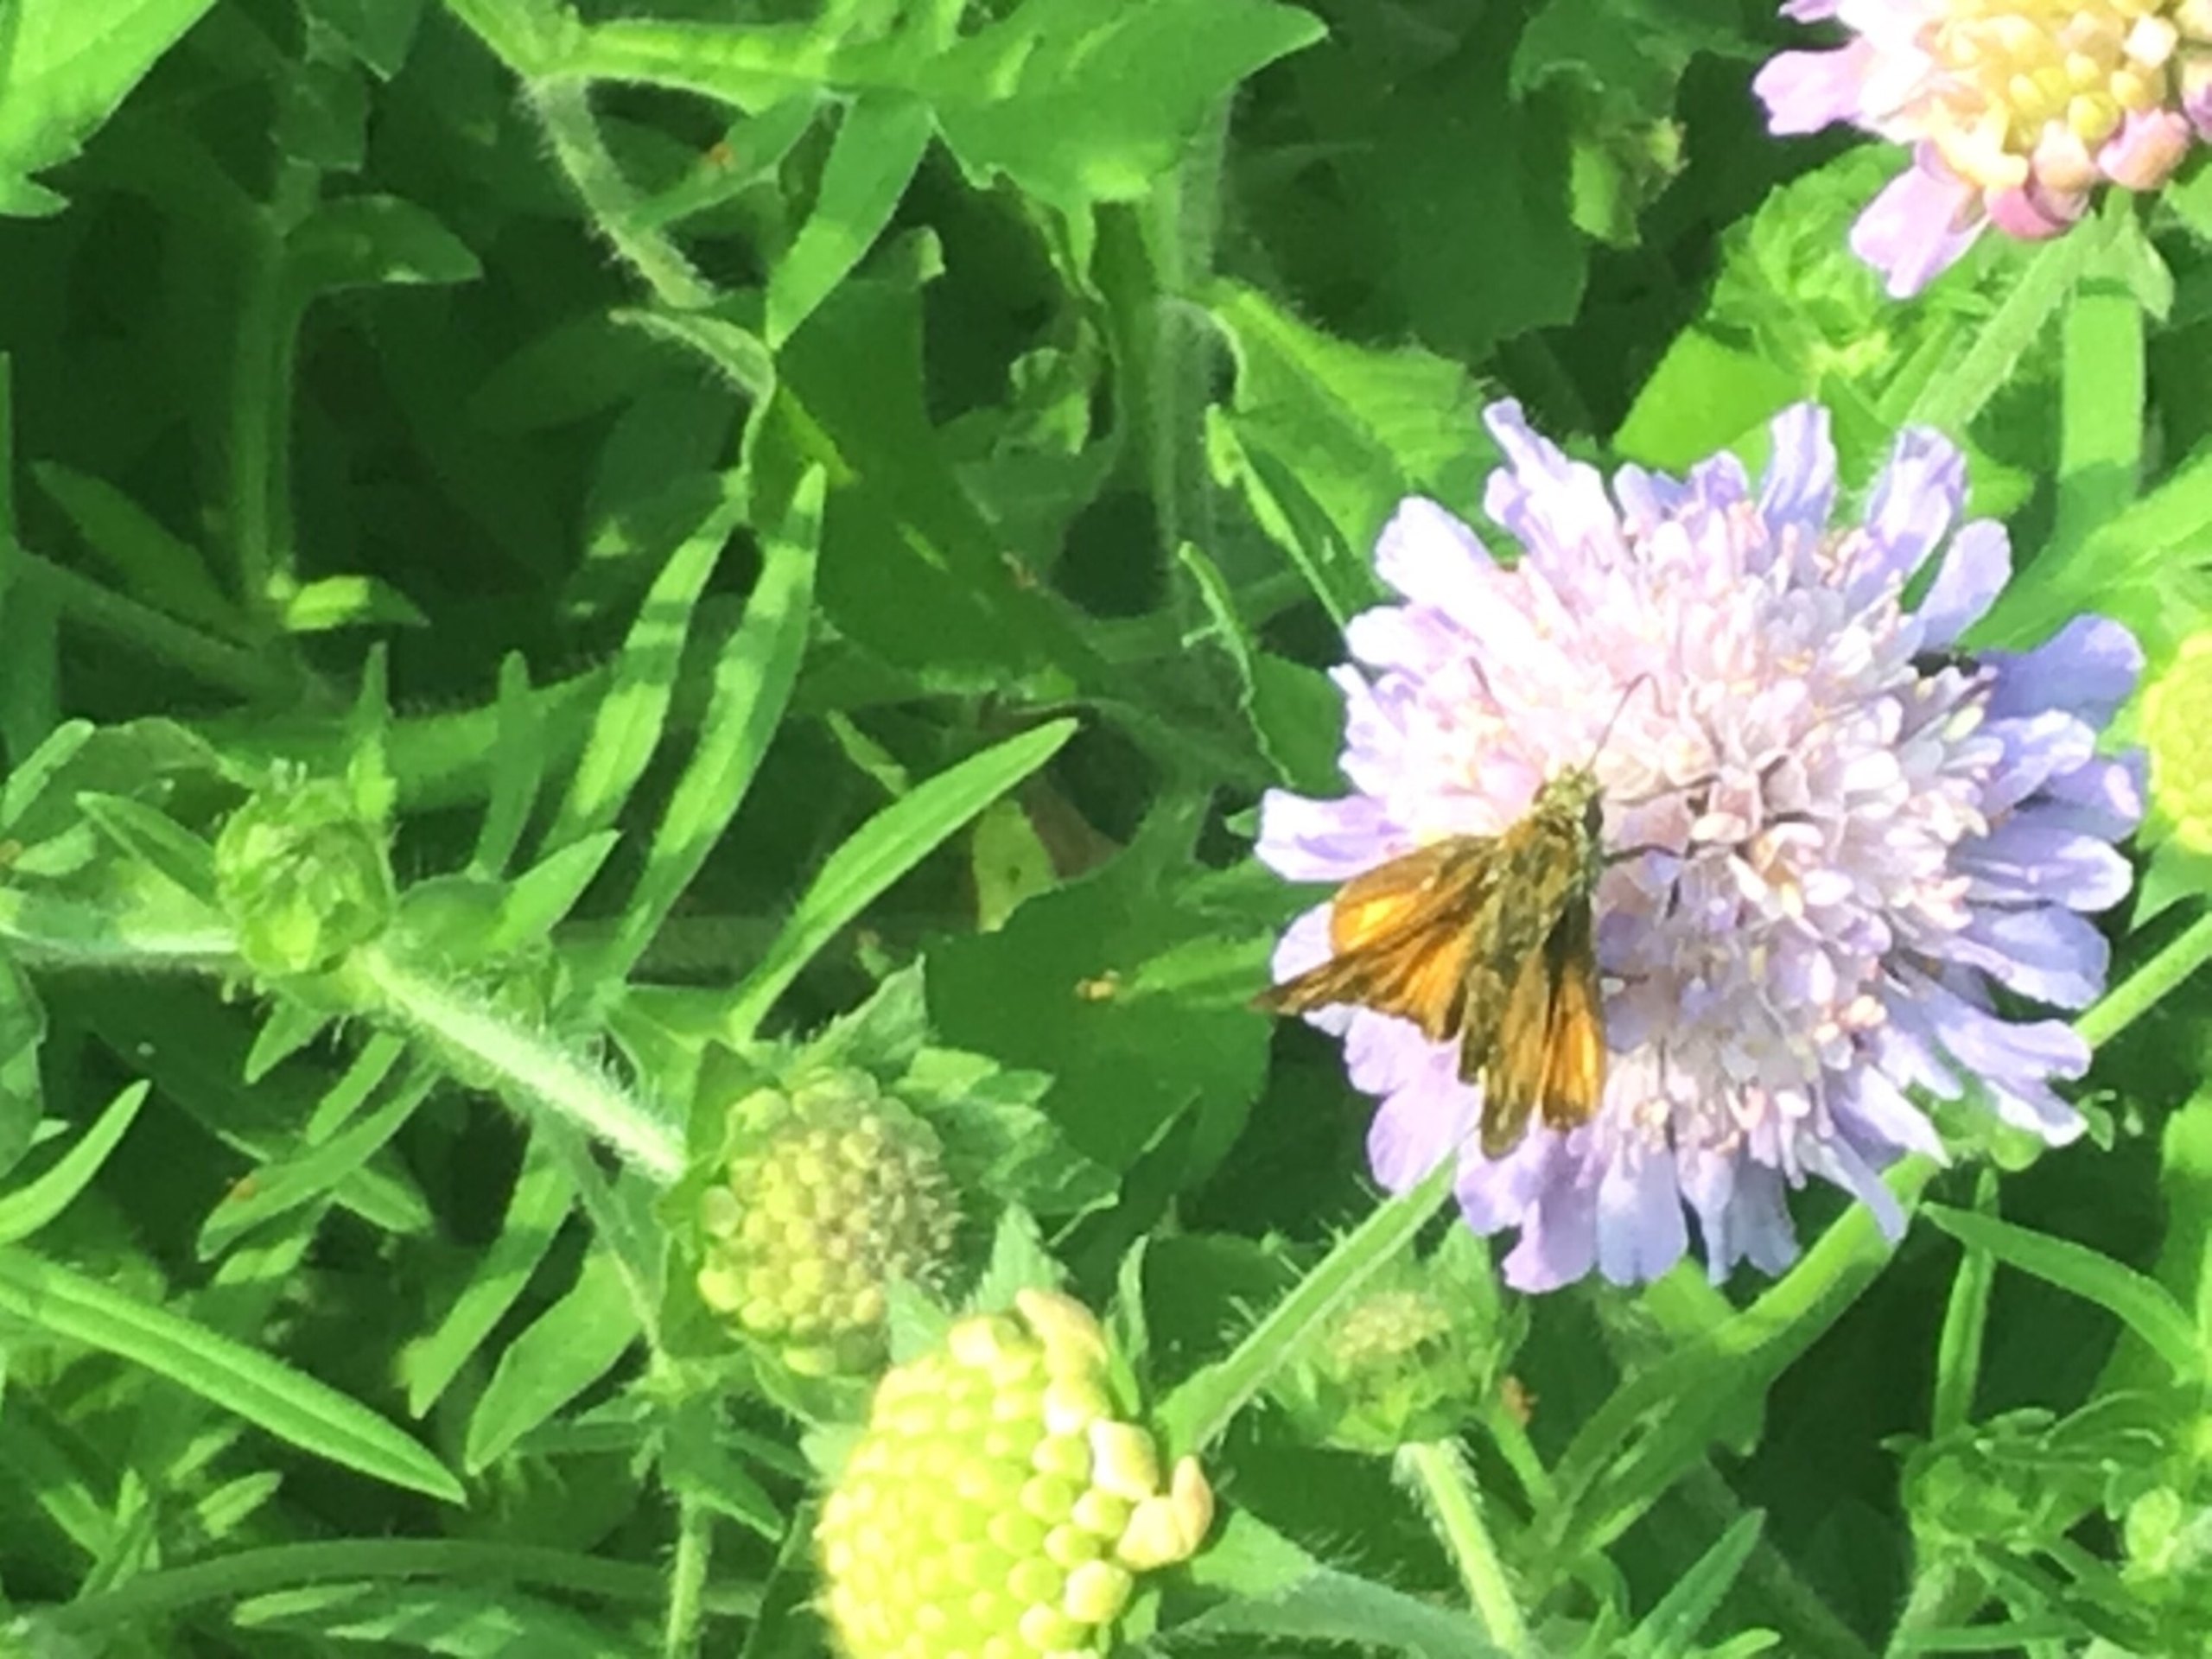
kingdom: Animalia
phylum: Arthropoda
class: Insecta
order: Lepidoptera
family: Hesperiidae
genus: Ochlodes
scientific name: Ochlodes venata
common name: Stor bredpande
